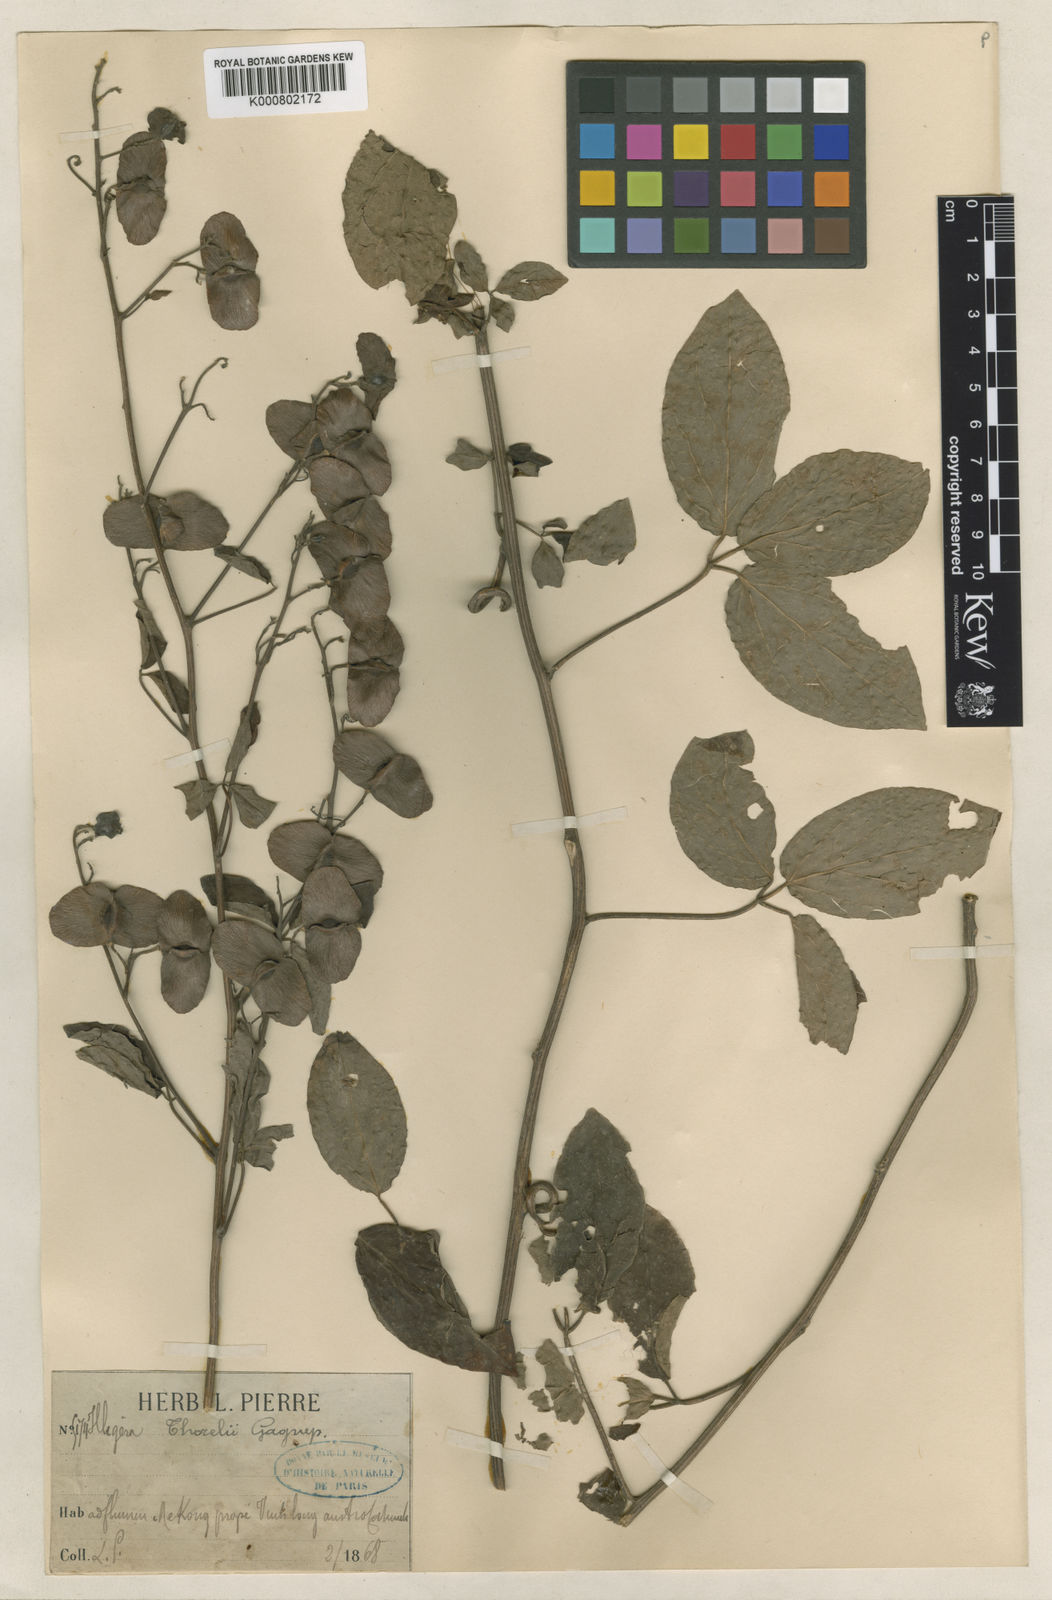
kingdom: Plantae
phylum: Tracheophyta
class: Magnoliopsida
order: Laurales
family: Hernandiaceae
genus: Illigera
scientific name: Illigera thorelii
